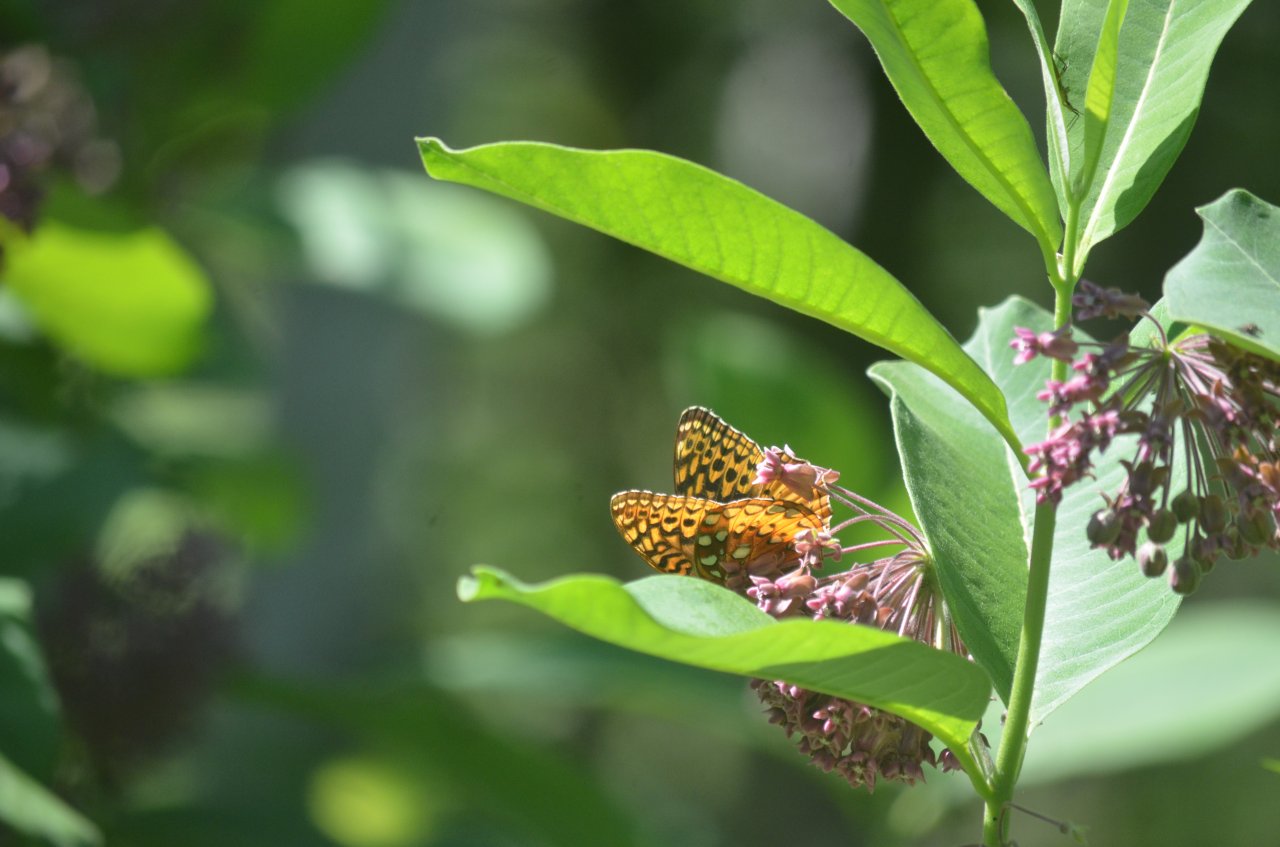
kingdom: Animalia
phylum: Arthropoda
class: Insecta
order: Lepidoptera
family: Nymphalidae
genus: Speyeria
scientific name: Speyeria cybele
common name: Great Spangled Fritillary
